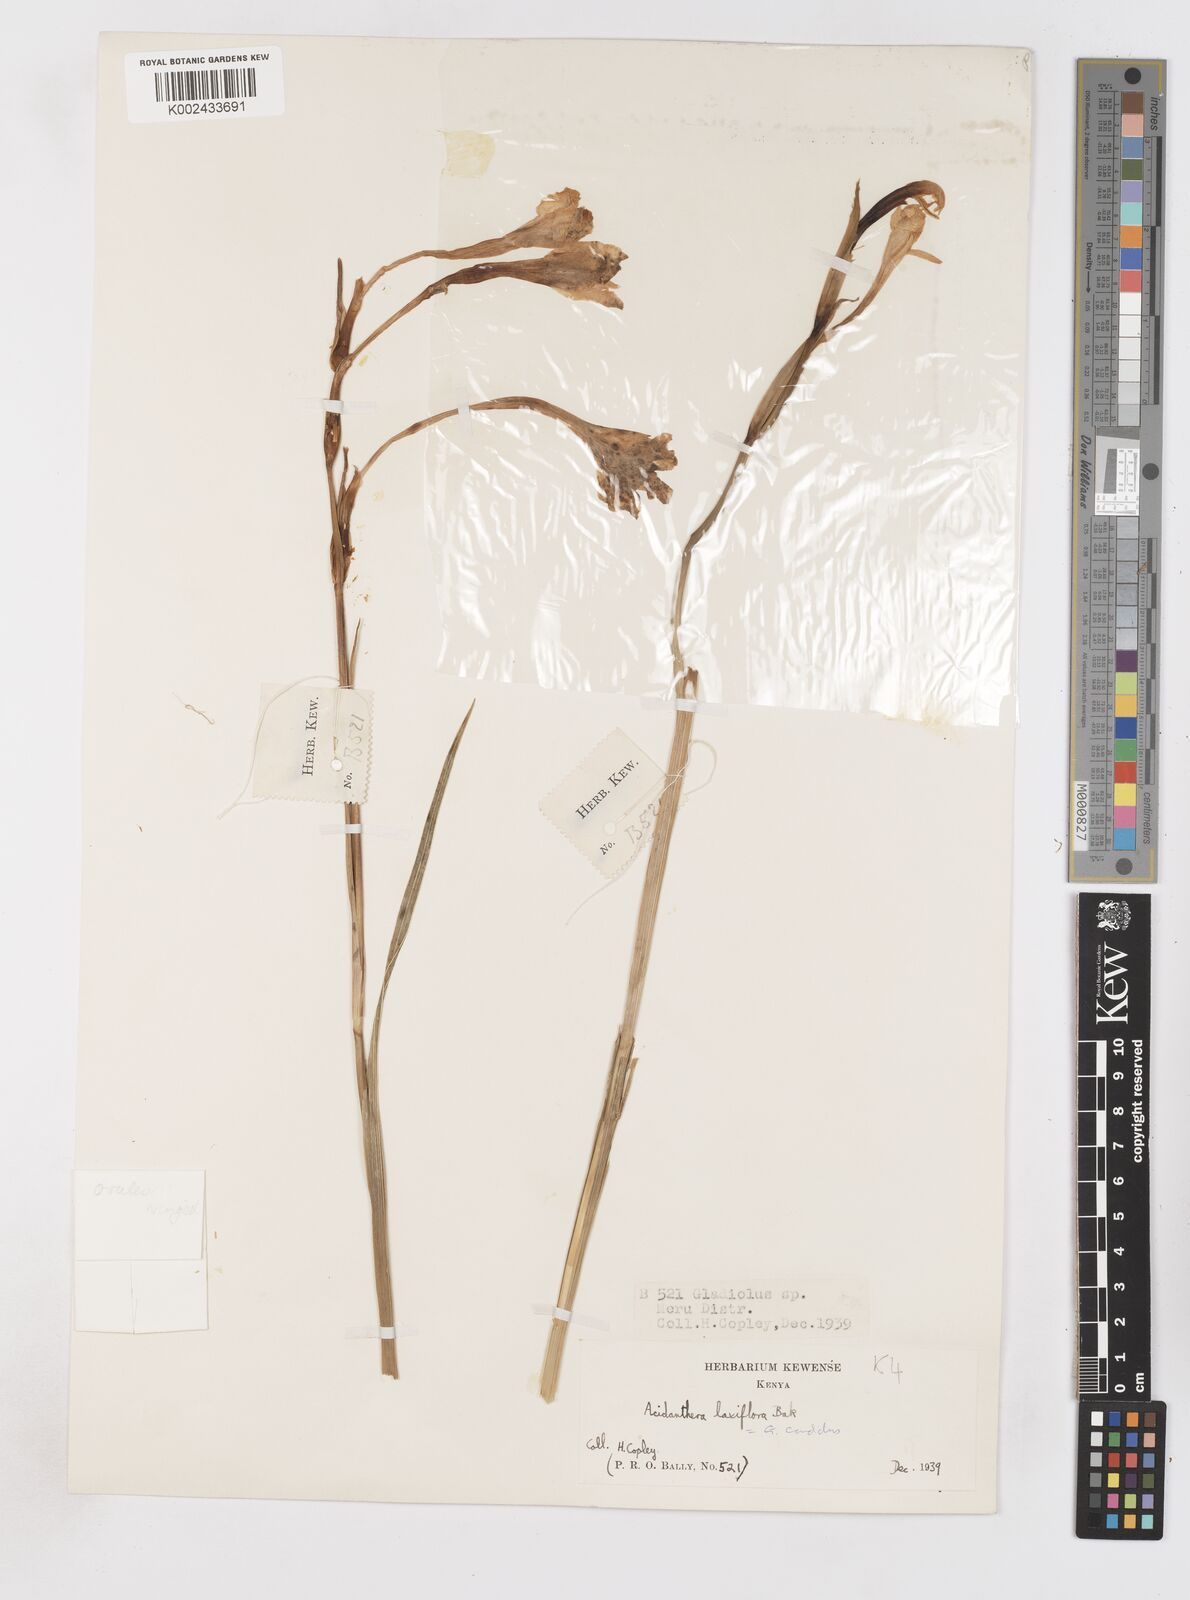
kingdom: Plantae
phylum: Tracheophyta
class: Liliopsida
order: Asparagales
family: Iridaceae
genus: Gladiolus
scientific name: Gladiolus candidus
